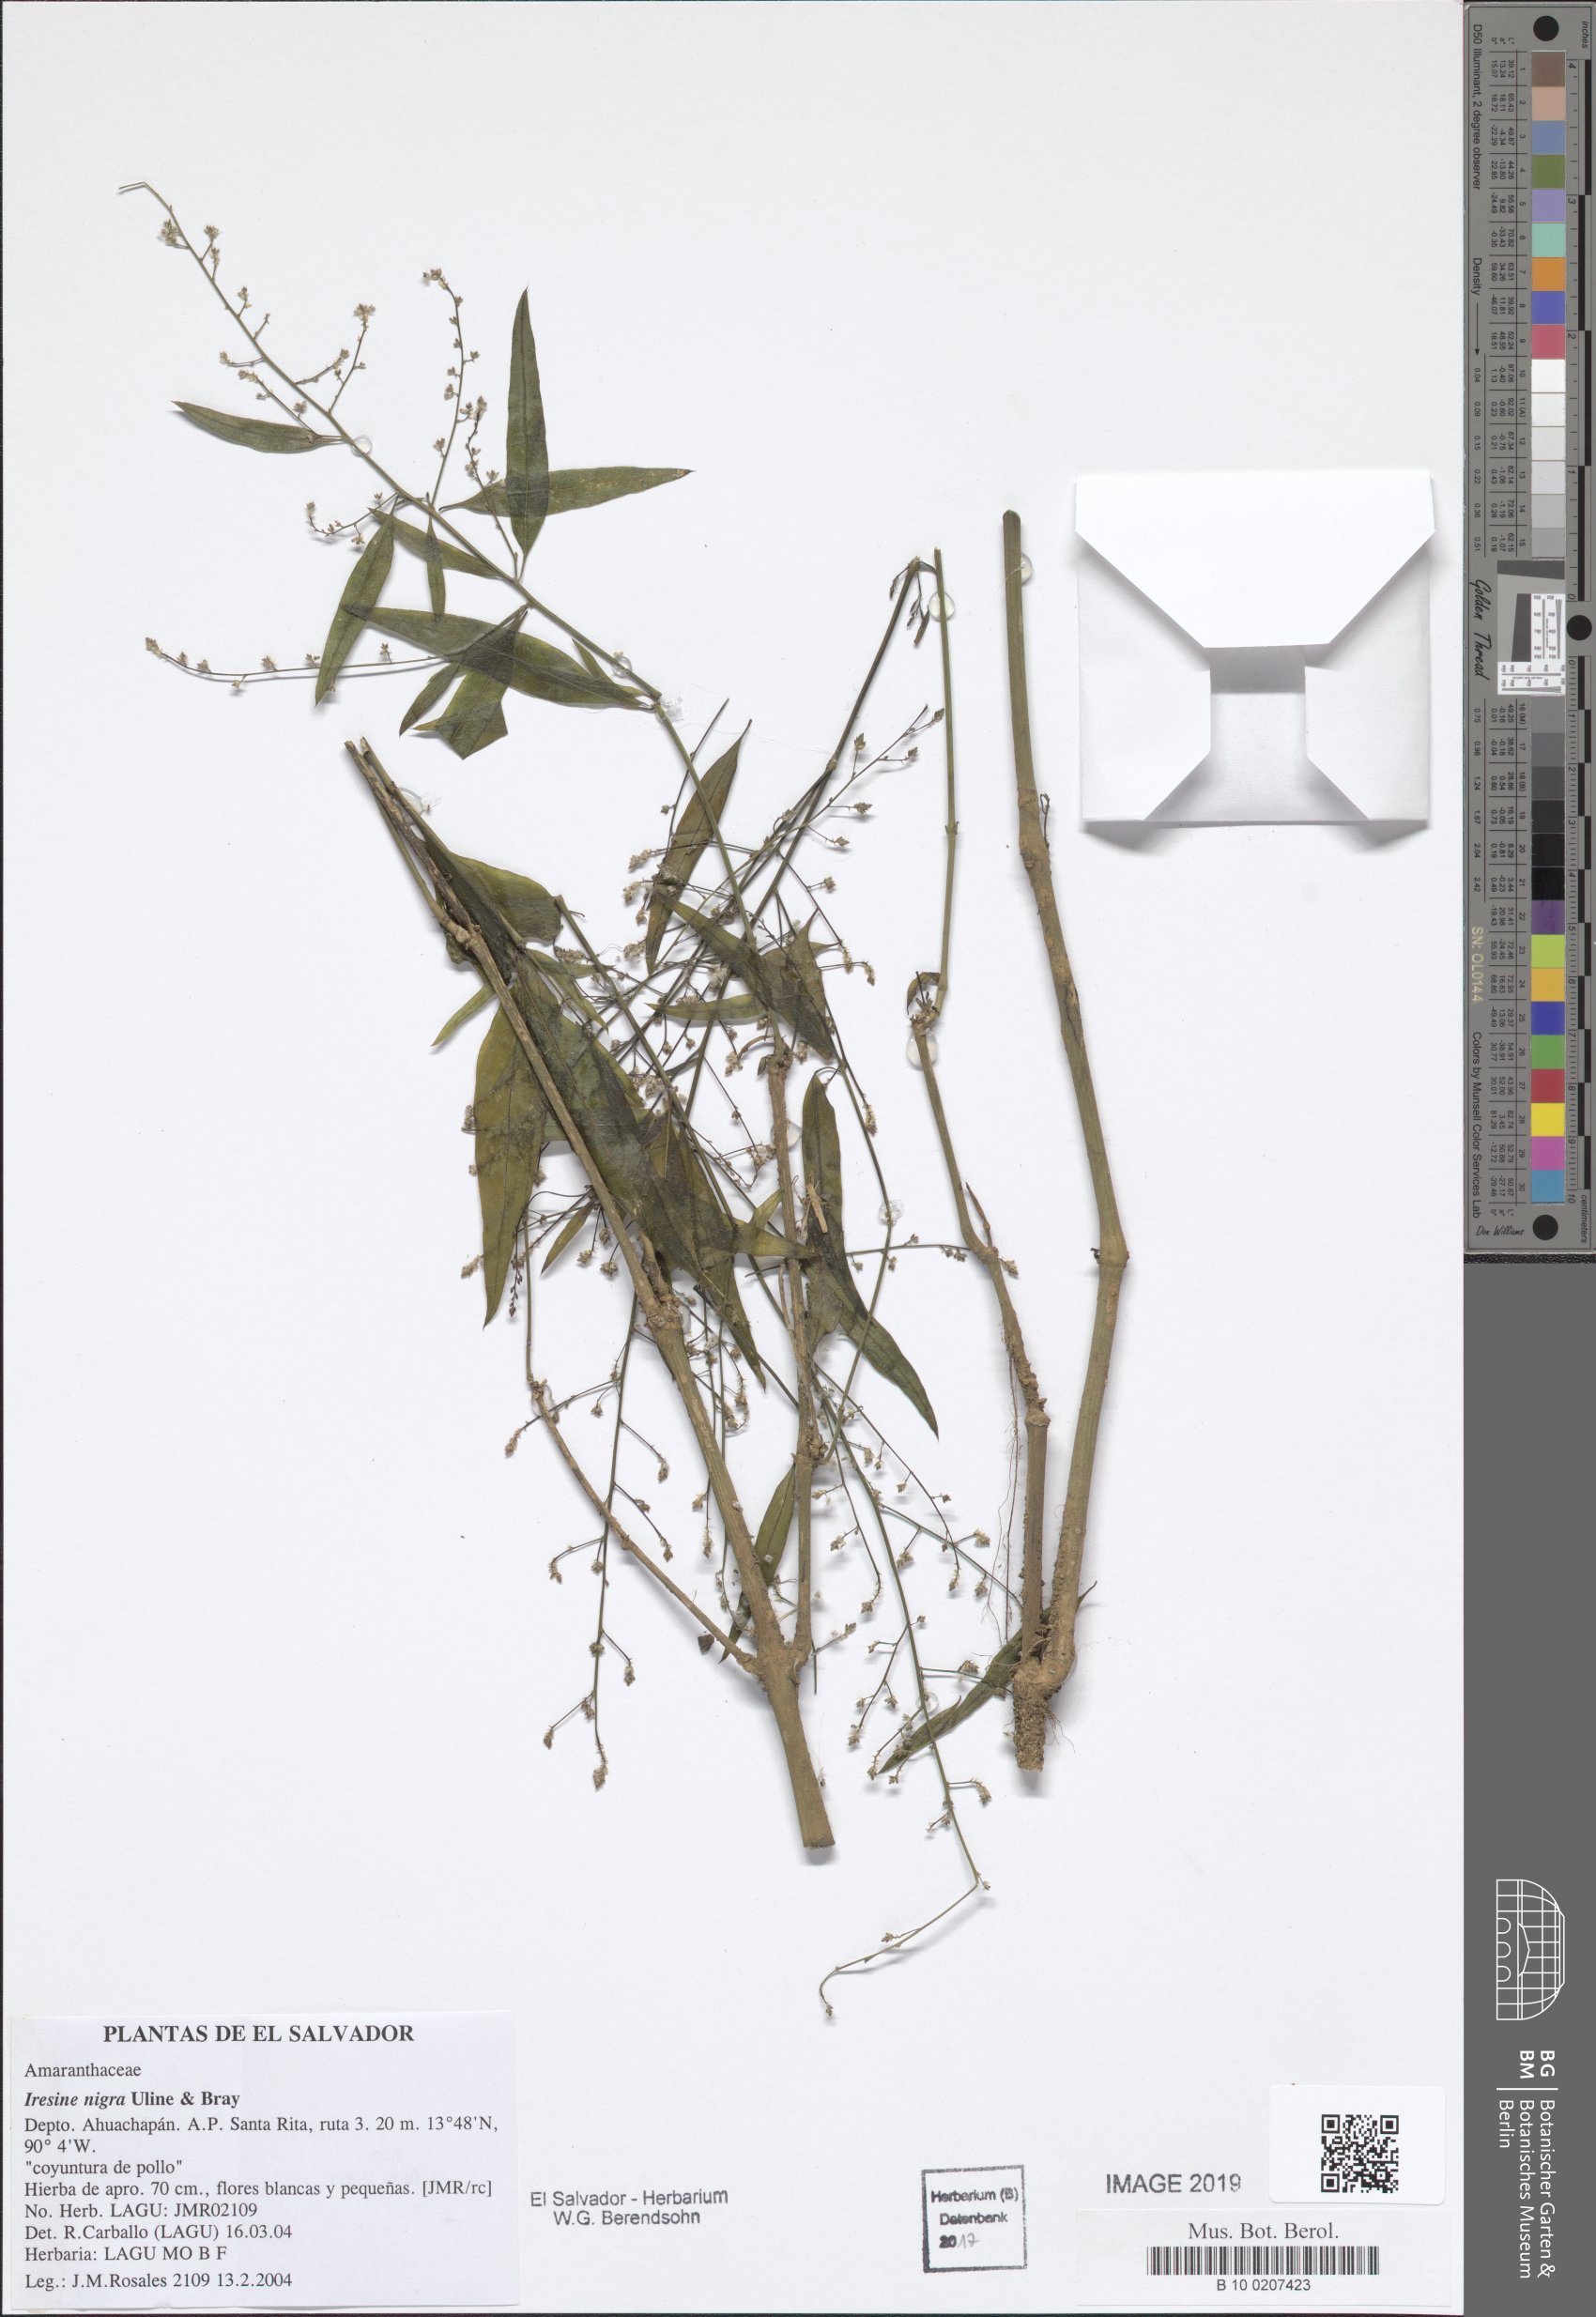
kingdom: Plantae
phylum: Tracheophyta
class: Magnoliopsida
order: Caryophyllales
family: Amaranthaceae
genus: Iresine
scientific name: Iresine angustifolia
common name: White snowplant
